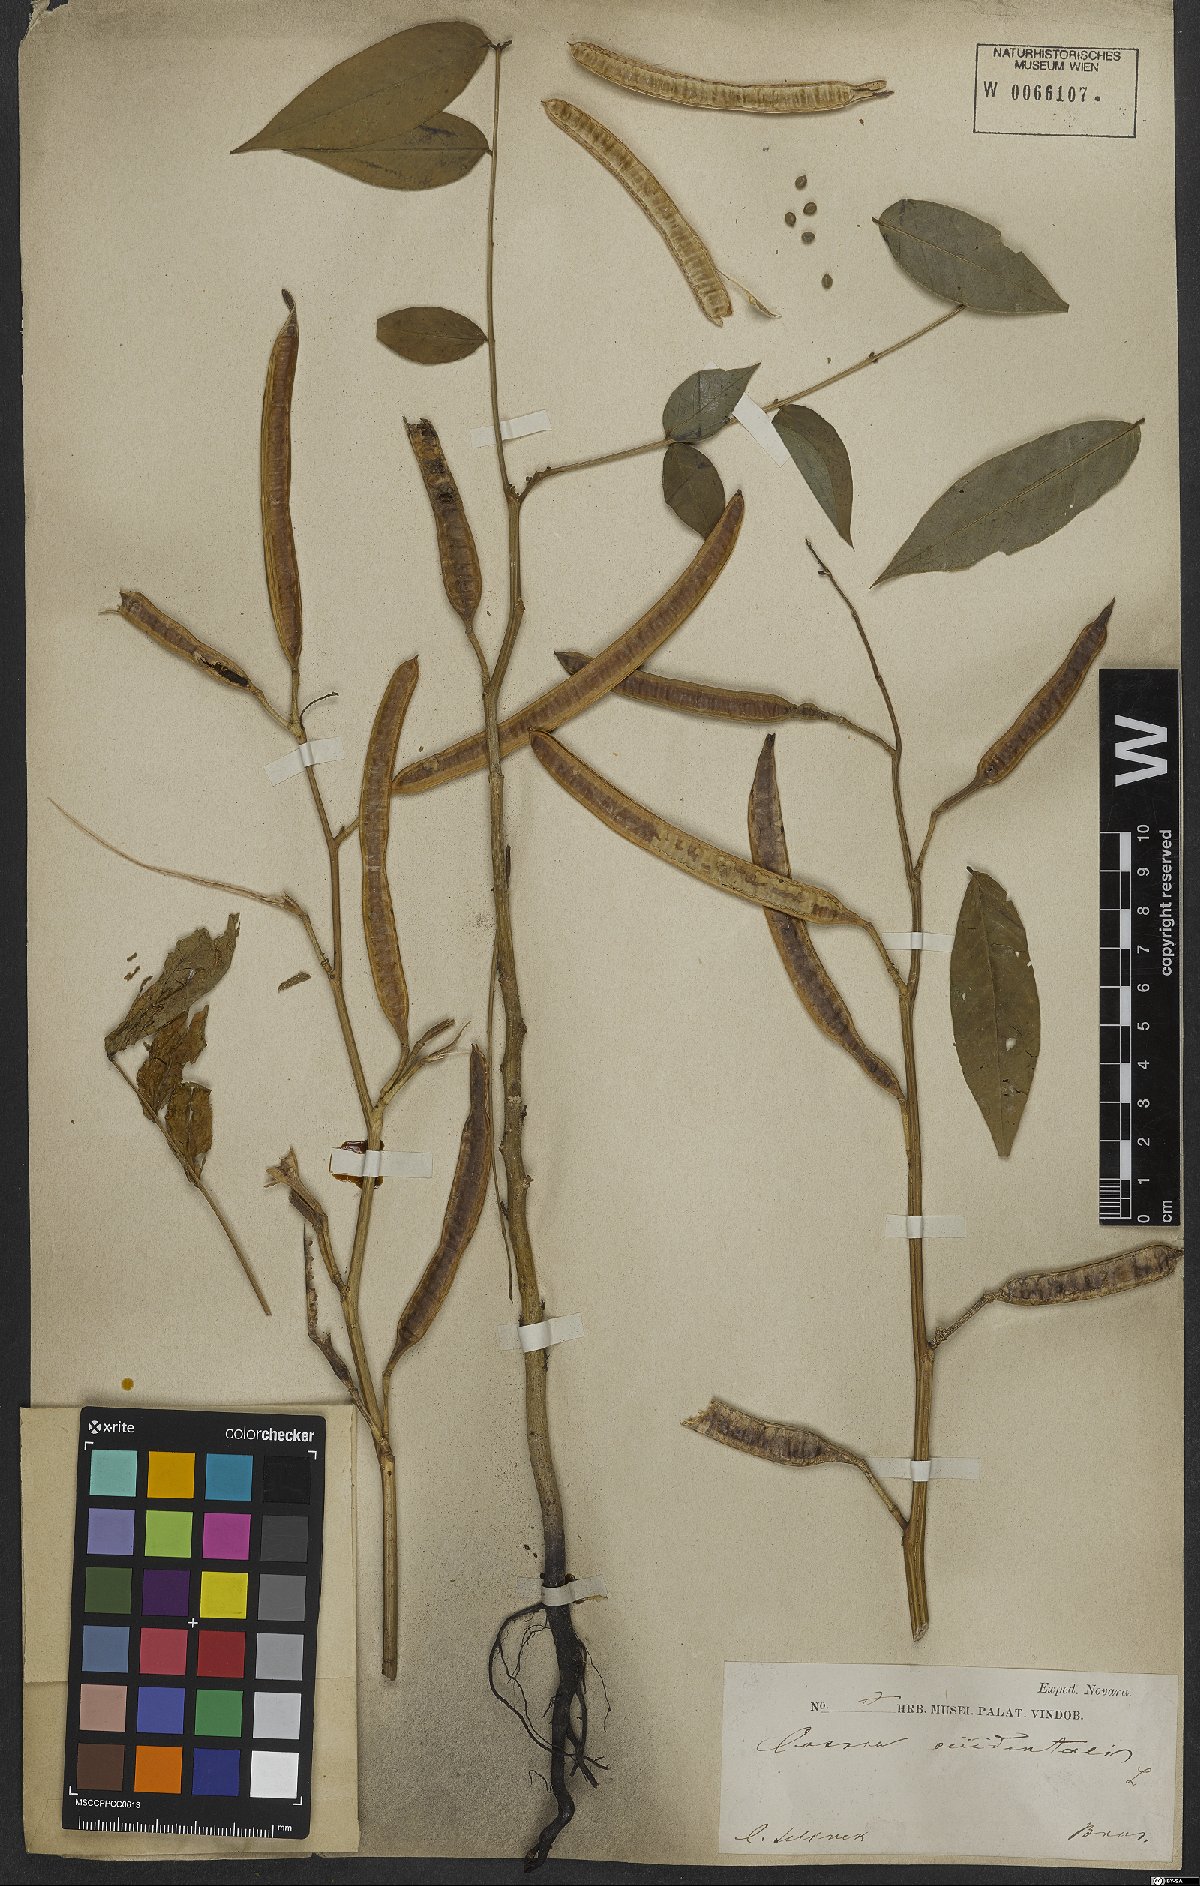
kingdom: Plantae
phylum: Tracheophyta
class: Magnoliopsida
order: Fabales
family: Fabaceae
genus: Senna
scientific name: Senna occidentalis
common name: Septicweed
